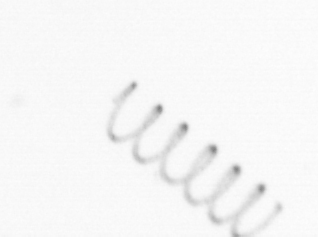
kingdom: Chromista
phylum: Ochrophyta
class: Bacillariophyceae
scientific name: Bacillariophyceae
